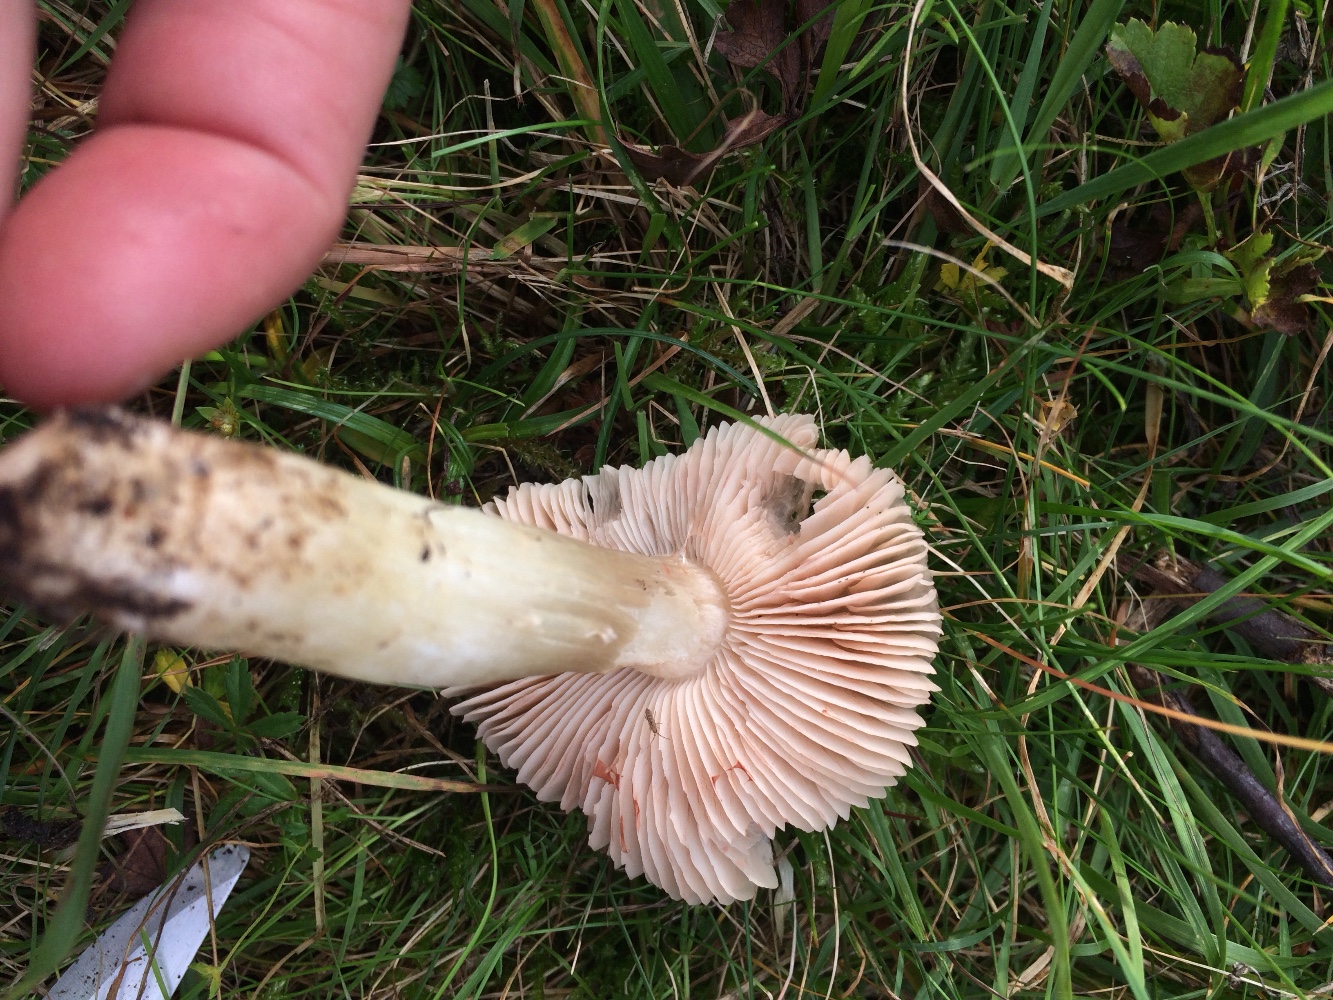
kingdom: Fungi
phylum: Basidiomycota
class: Agaricomycetes
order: Agaricales
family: Entolomataceae
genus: Entoloma
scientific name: Entoloma prunuloides
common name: mel-rødblad
